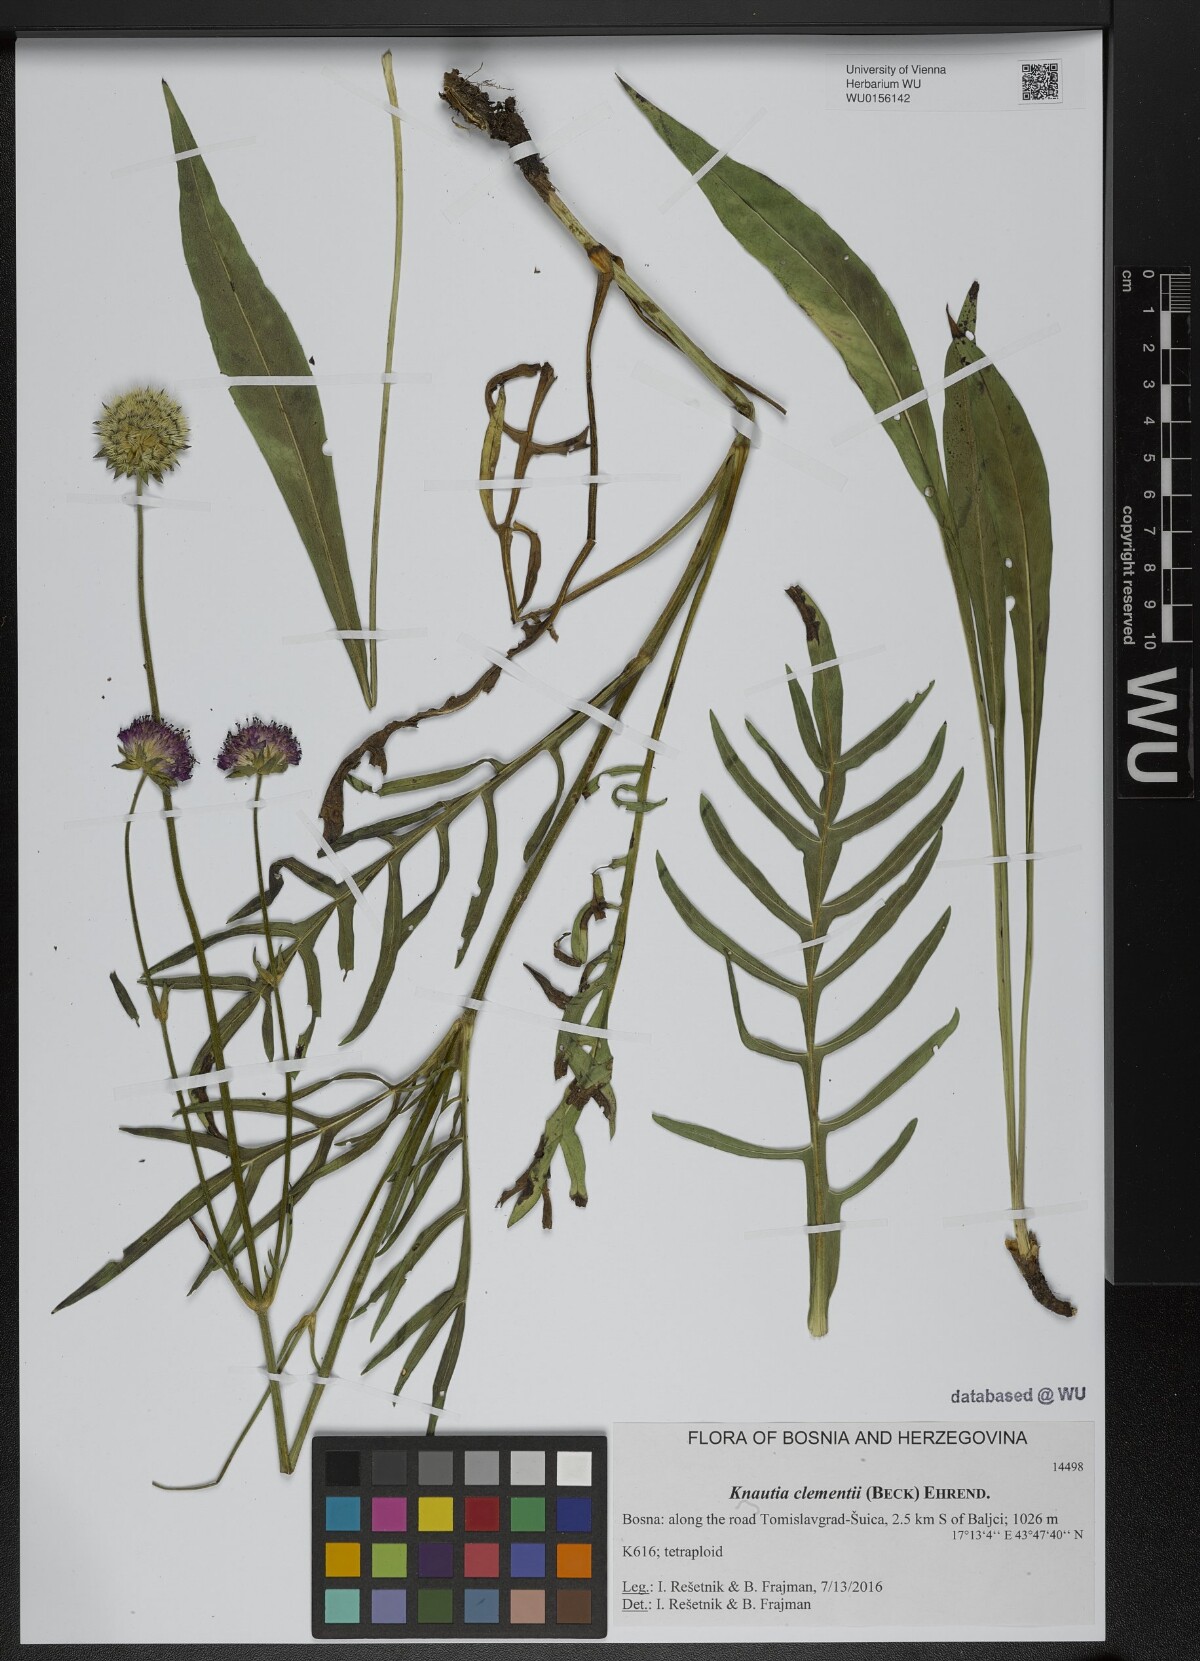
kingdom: Plantae
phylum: Tracheophyta
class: Magnoliopsida
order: Dipsacales
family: Caprifoliaceae
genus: Knautia
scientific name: Knautia clementii
